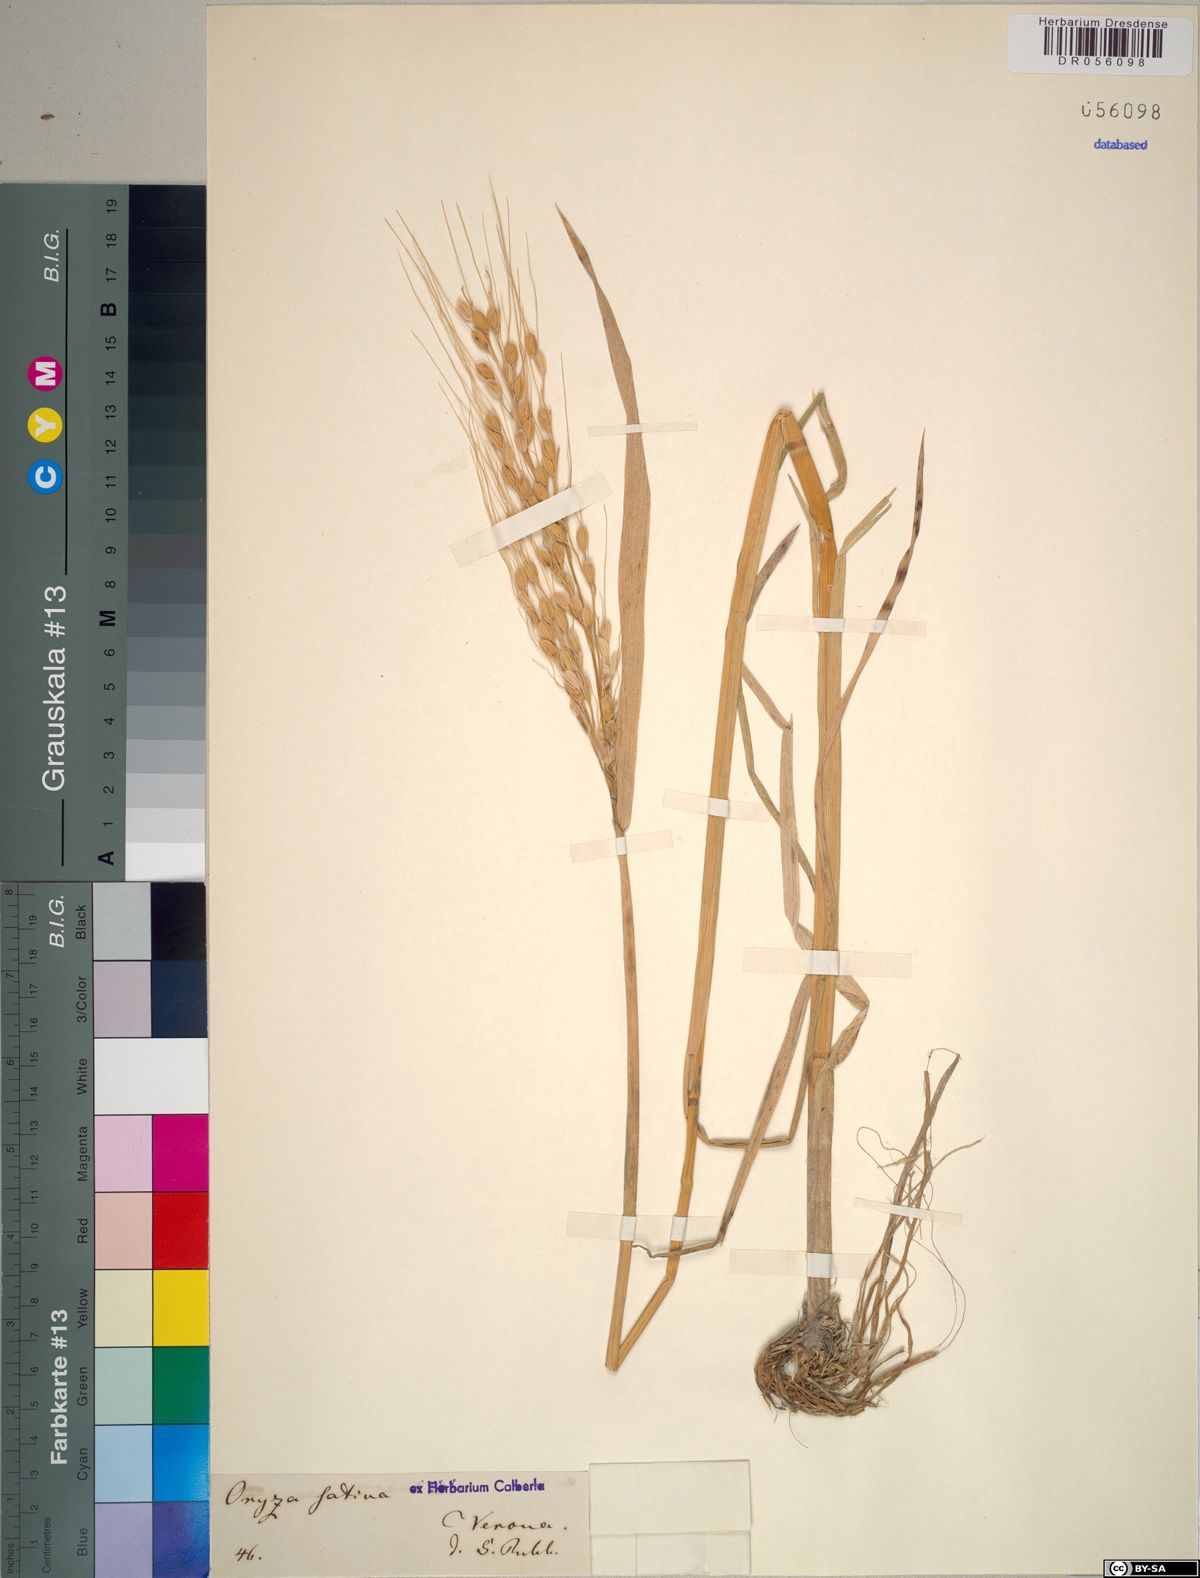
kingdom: Plantae
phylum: Tracheophyta
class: Liliopsida
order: Poales
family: Poaceae
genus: Oryza
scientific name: Oryza sativa
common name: Rice
